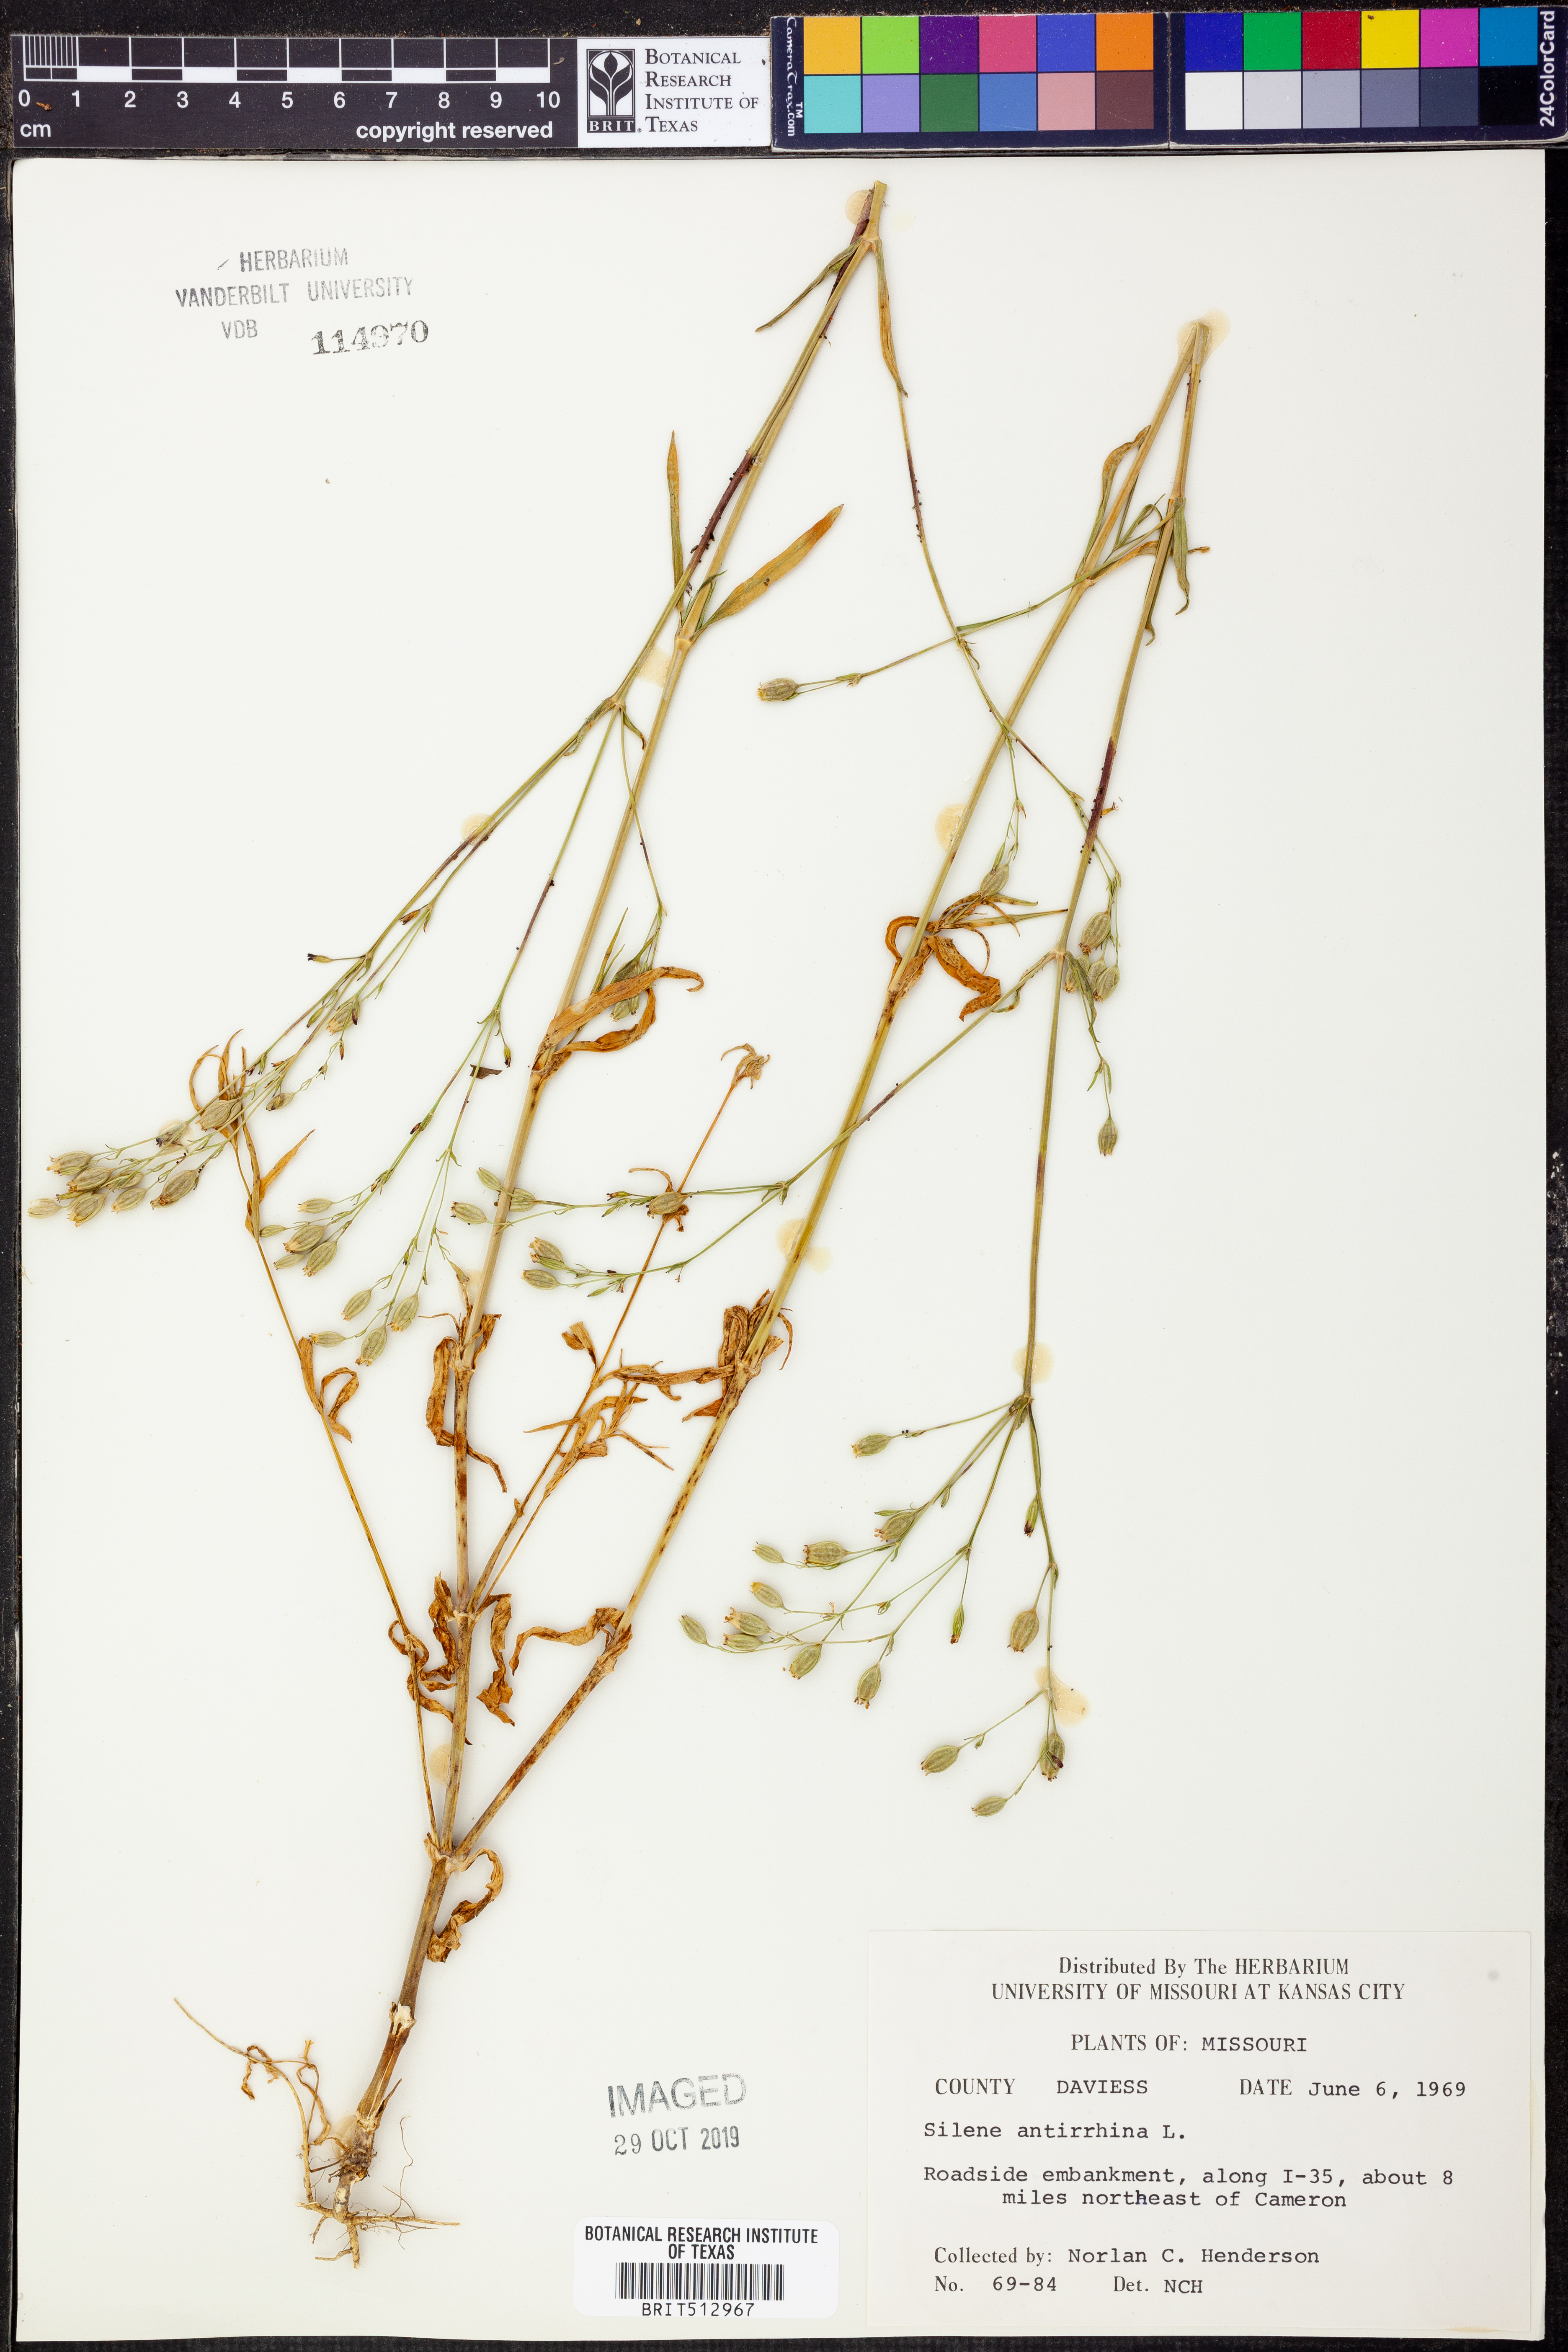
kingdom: Plantae
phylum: Tracheophyta
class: Magnoliopsida
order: Caryophyllales
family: Caryophyllaceae
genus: Silene
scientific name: Silene antirrhina
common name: Sleepy catchfly
